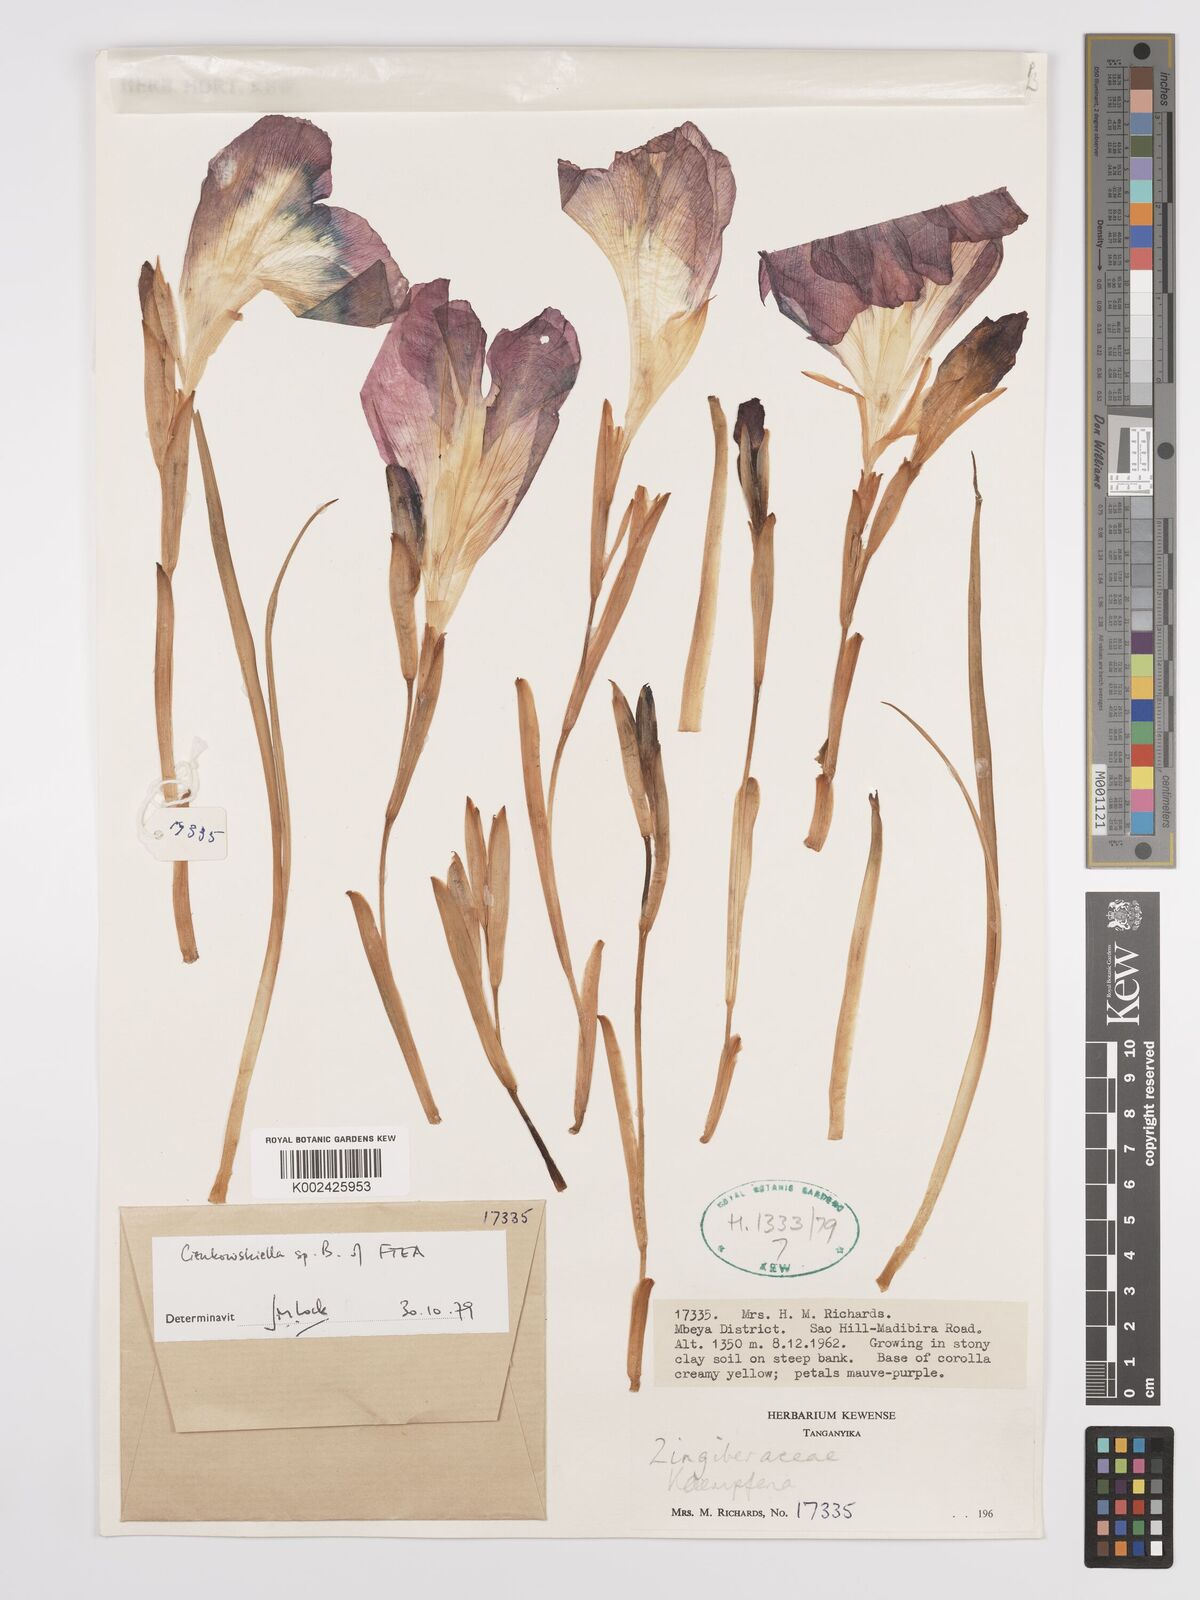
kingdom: Plantae
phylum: Tracheophyta
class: Liliopsida
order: Zingiberales
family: Zingiberaceae
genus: Siphonochilus
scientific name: Siphonochilus
